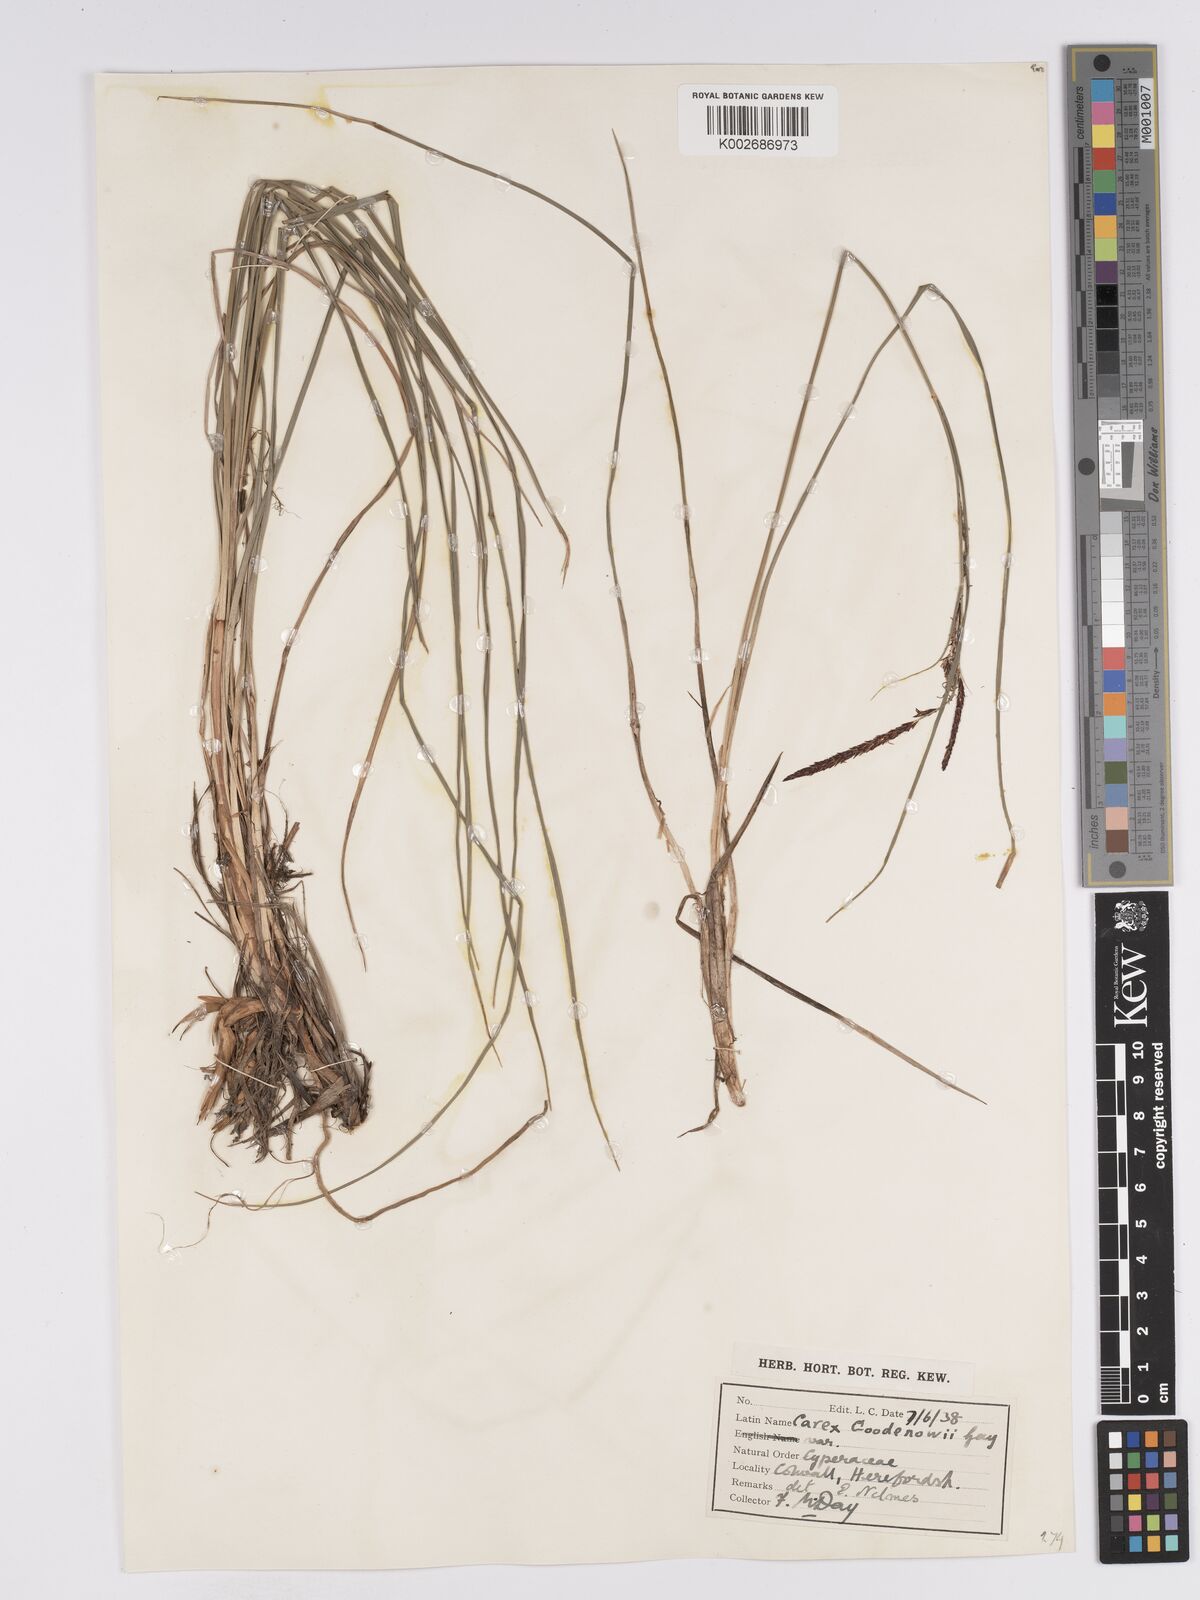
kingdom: Plantae
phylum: Tracheophyta
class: Liliopsida
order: Poales
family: Cyperaceae
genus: Carex
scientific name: Carex nigra
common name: Common sedge
